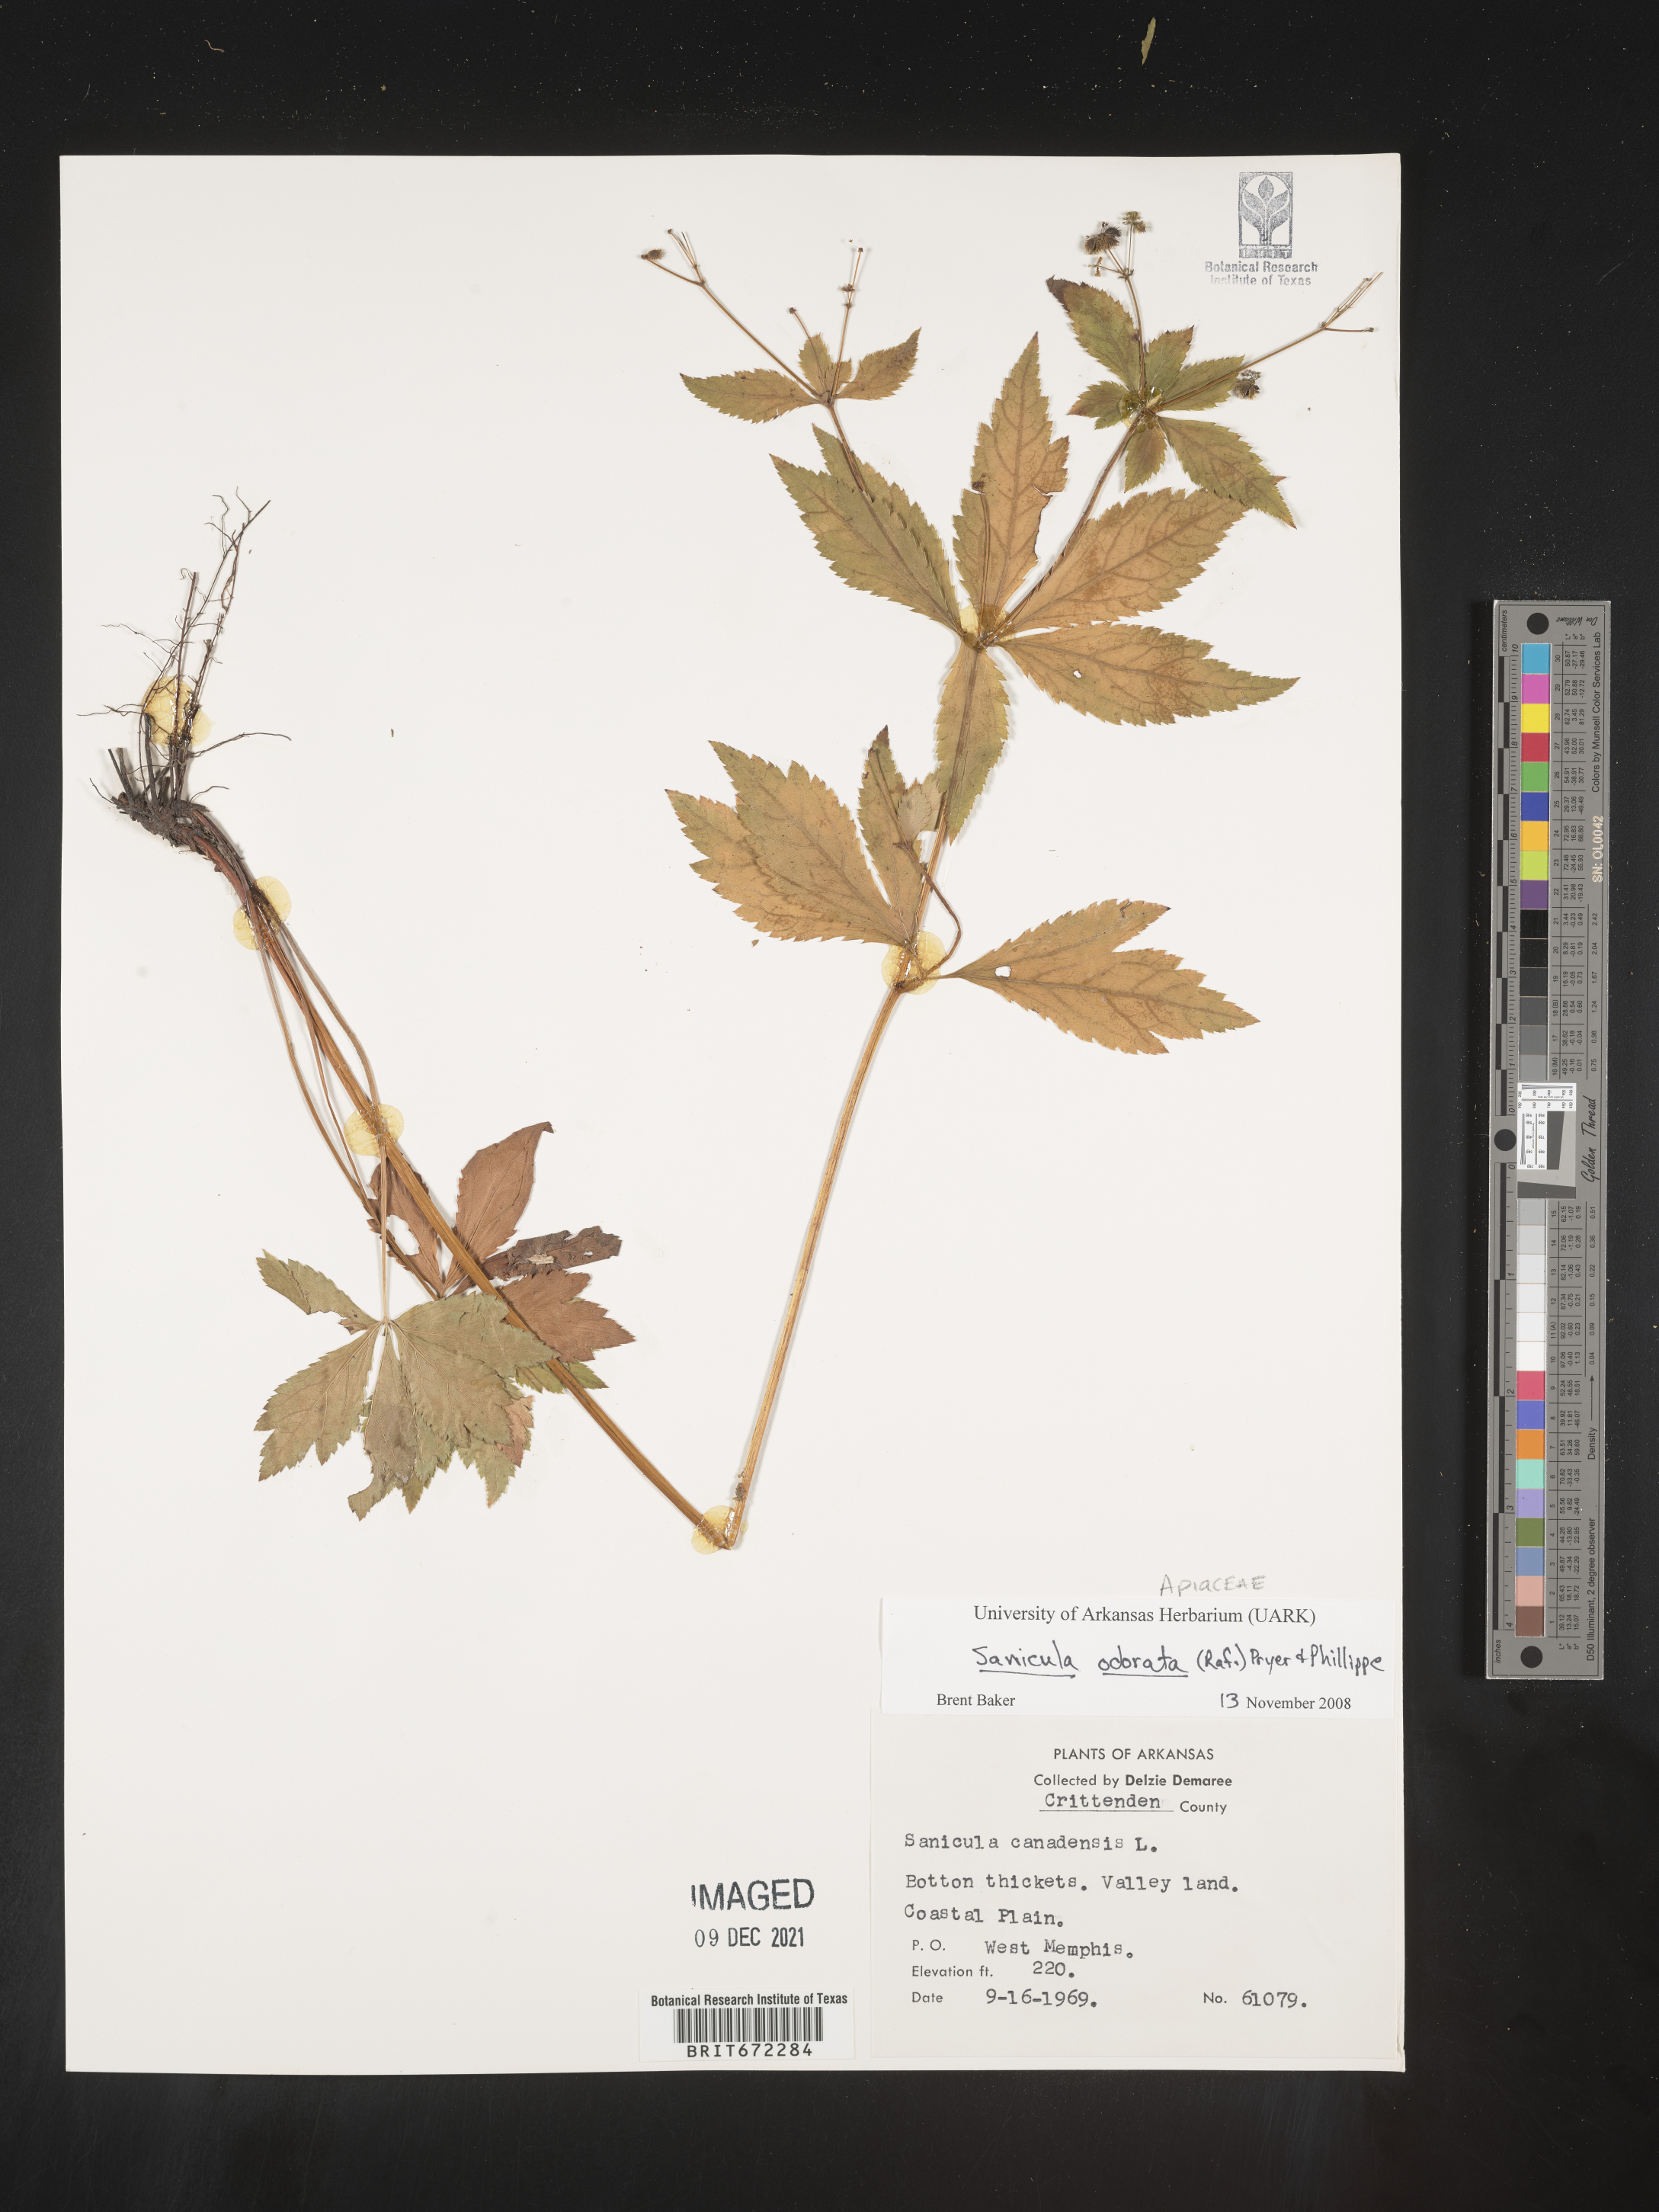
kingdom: Plantae
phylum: Tracheophyta
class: Magnoliopsida
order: Apiales
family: Apiaceae
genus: Sanicula
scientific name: Sanicula
